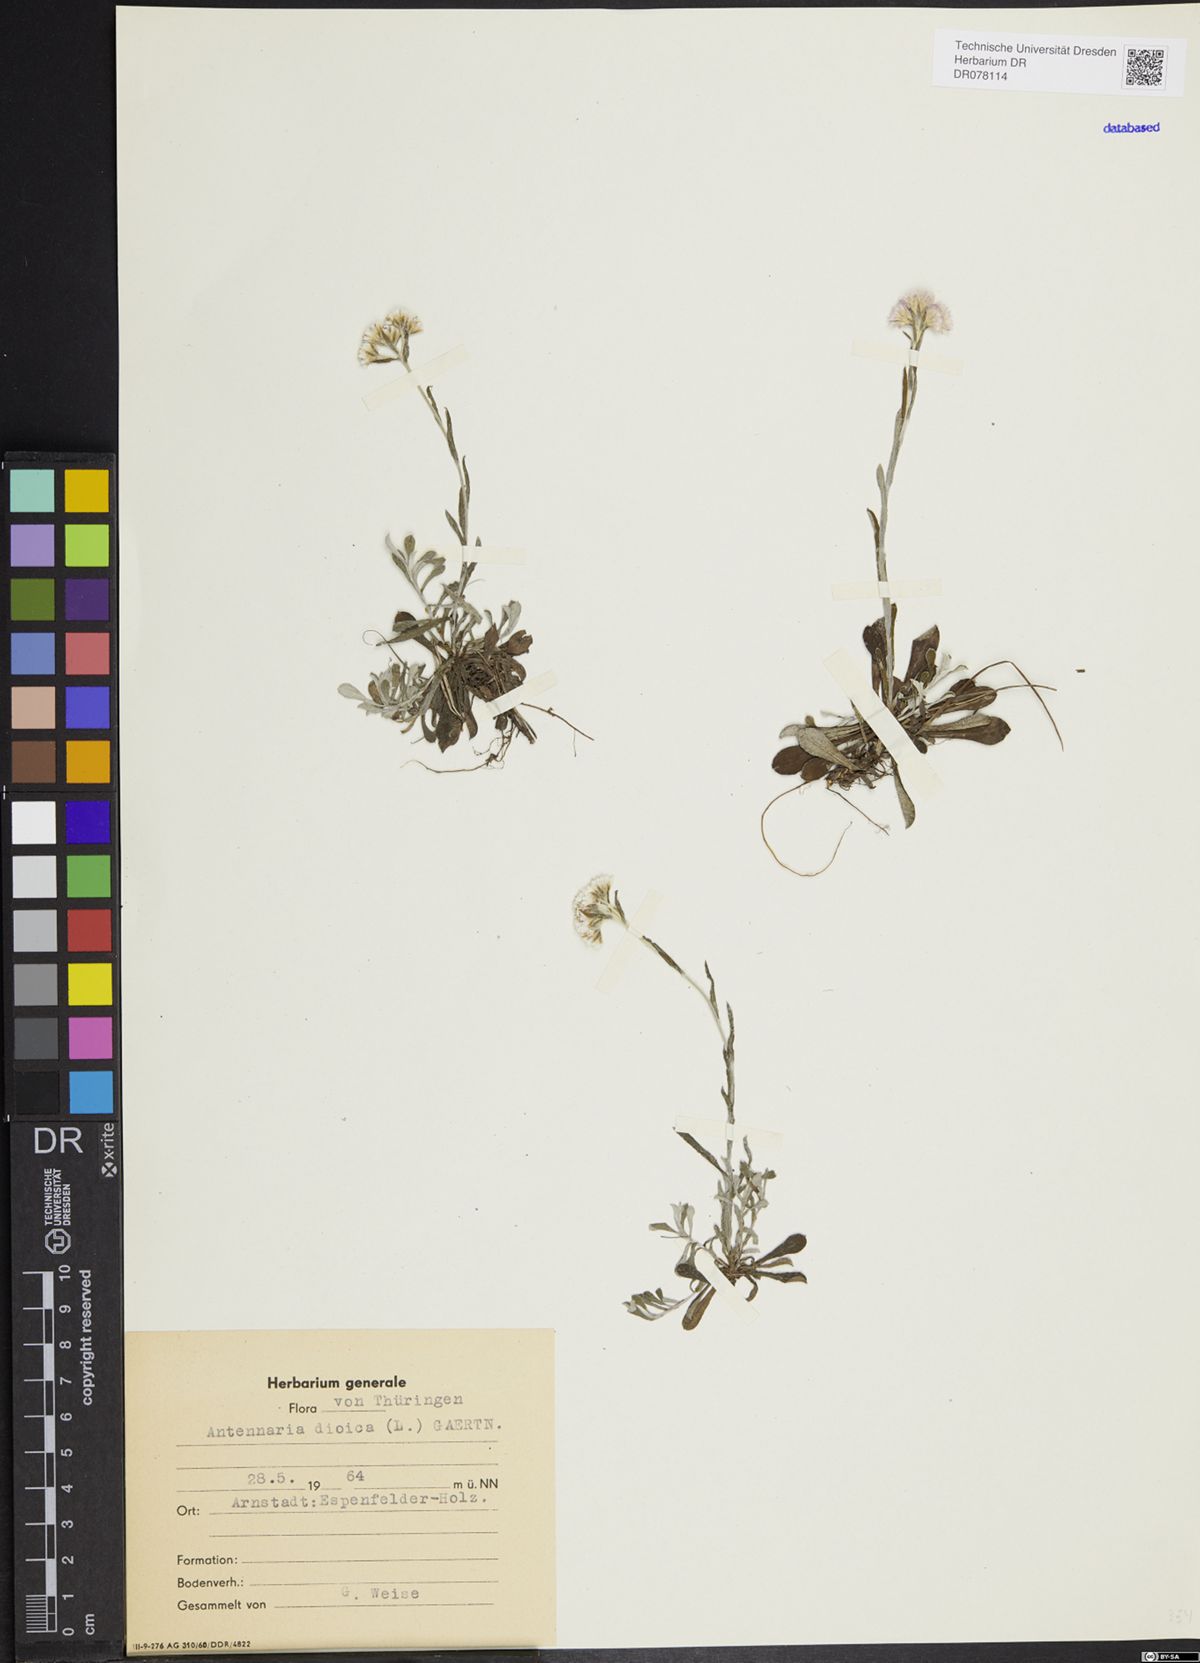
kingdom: Plantae
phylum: Tracheophyta
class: Magnoliopsida
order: Asterales
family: Asteraceae
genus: Antennaria
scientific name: Antennaria dioica
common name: Mountain everlasting
